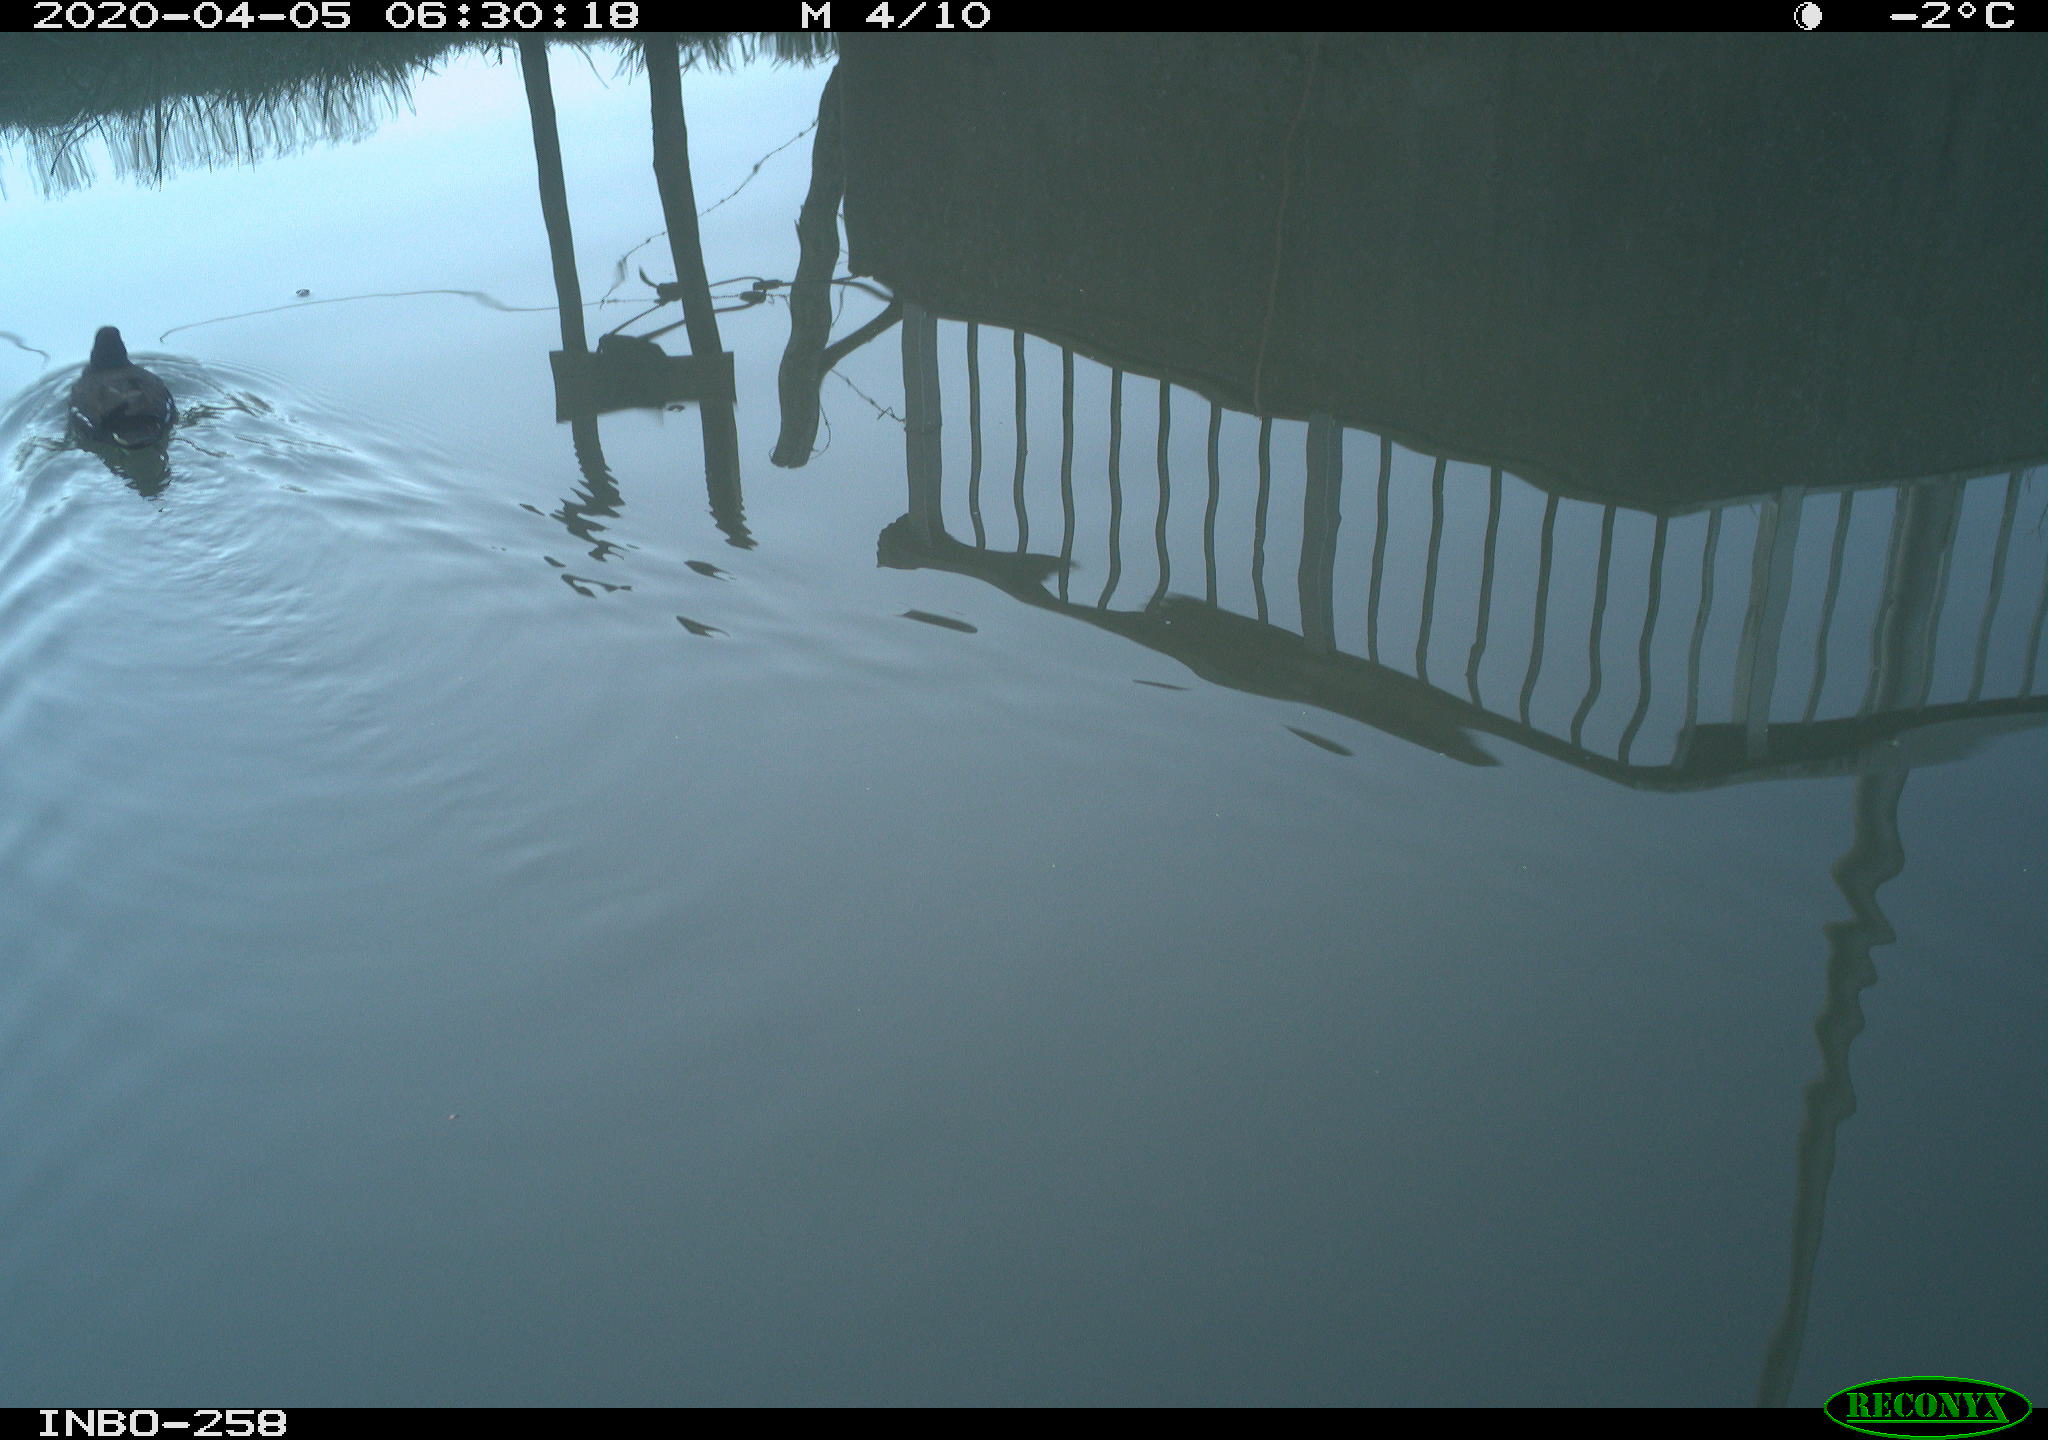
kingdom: Animalia
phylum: Chordata
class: Aves
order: Gruiformes
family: Rallidae
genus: Gallinula
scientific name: Gallinula chloropus
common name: Common moorhen
